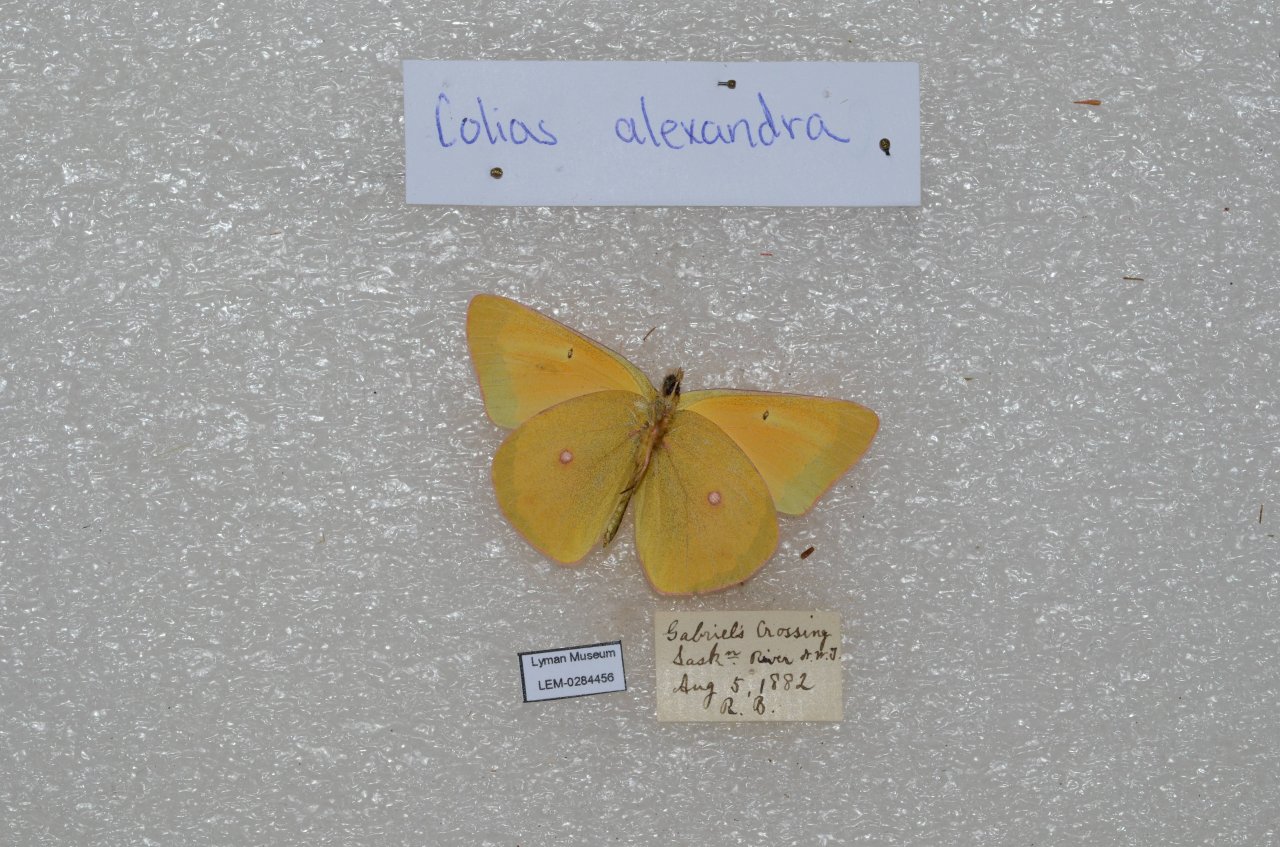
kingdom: Animalia
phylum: Arthropoda
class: Insecta
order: Lepidoptera
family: Pieridae
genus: Colias
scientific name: Colias christina
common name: Christina Sulphur
